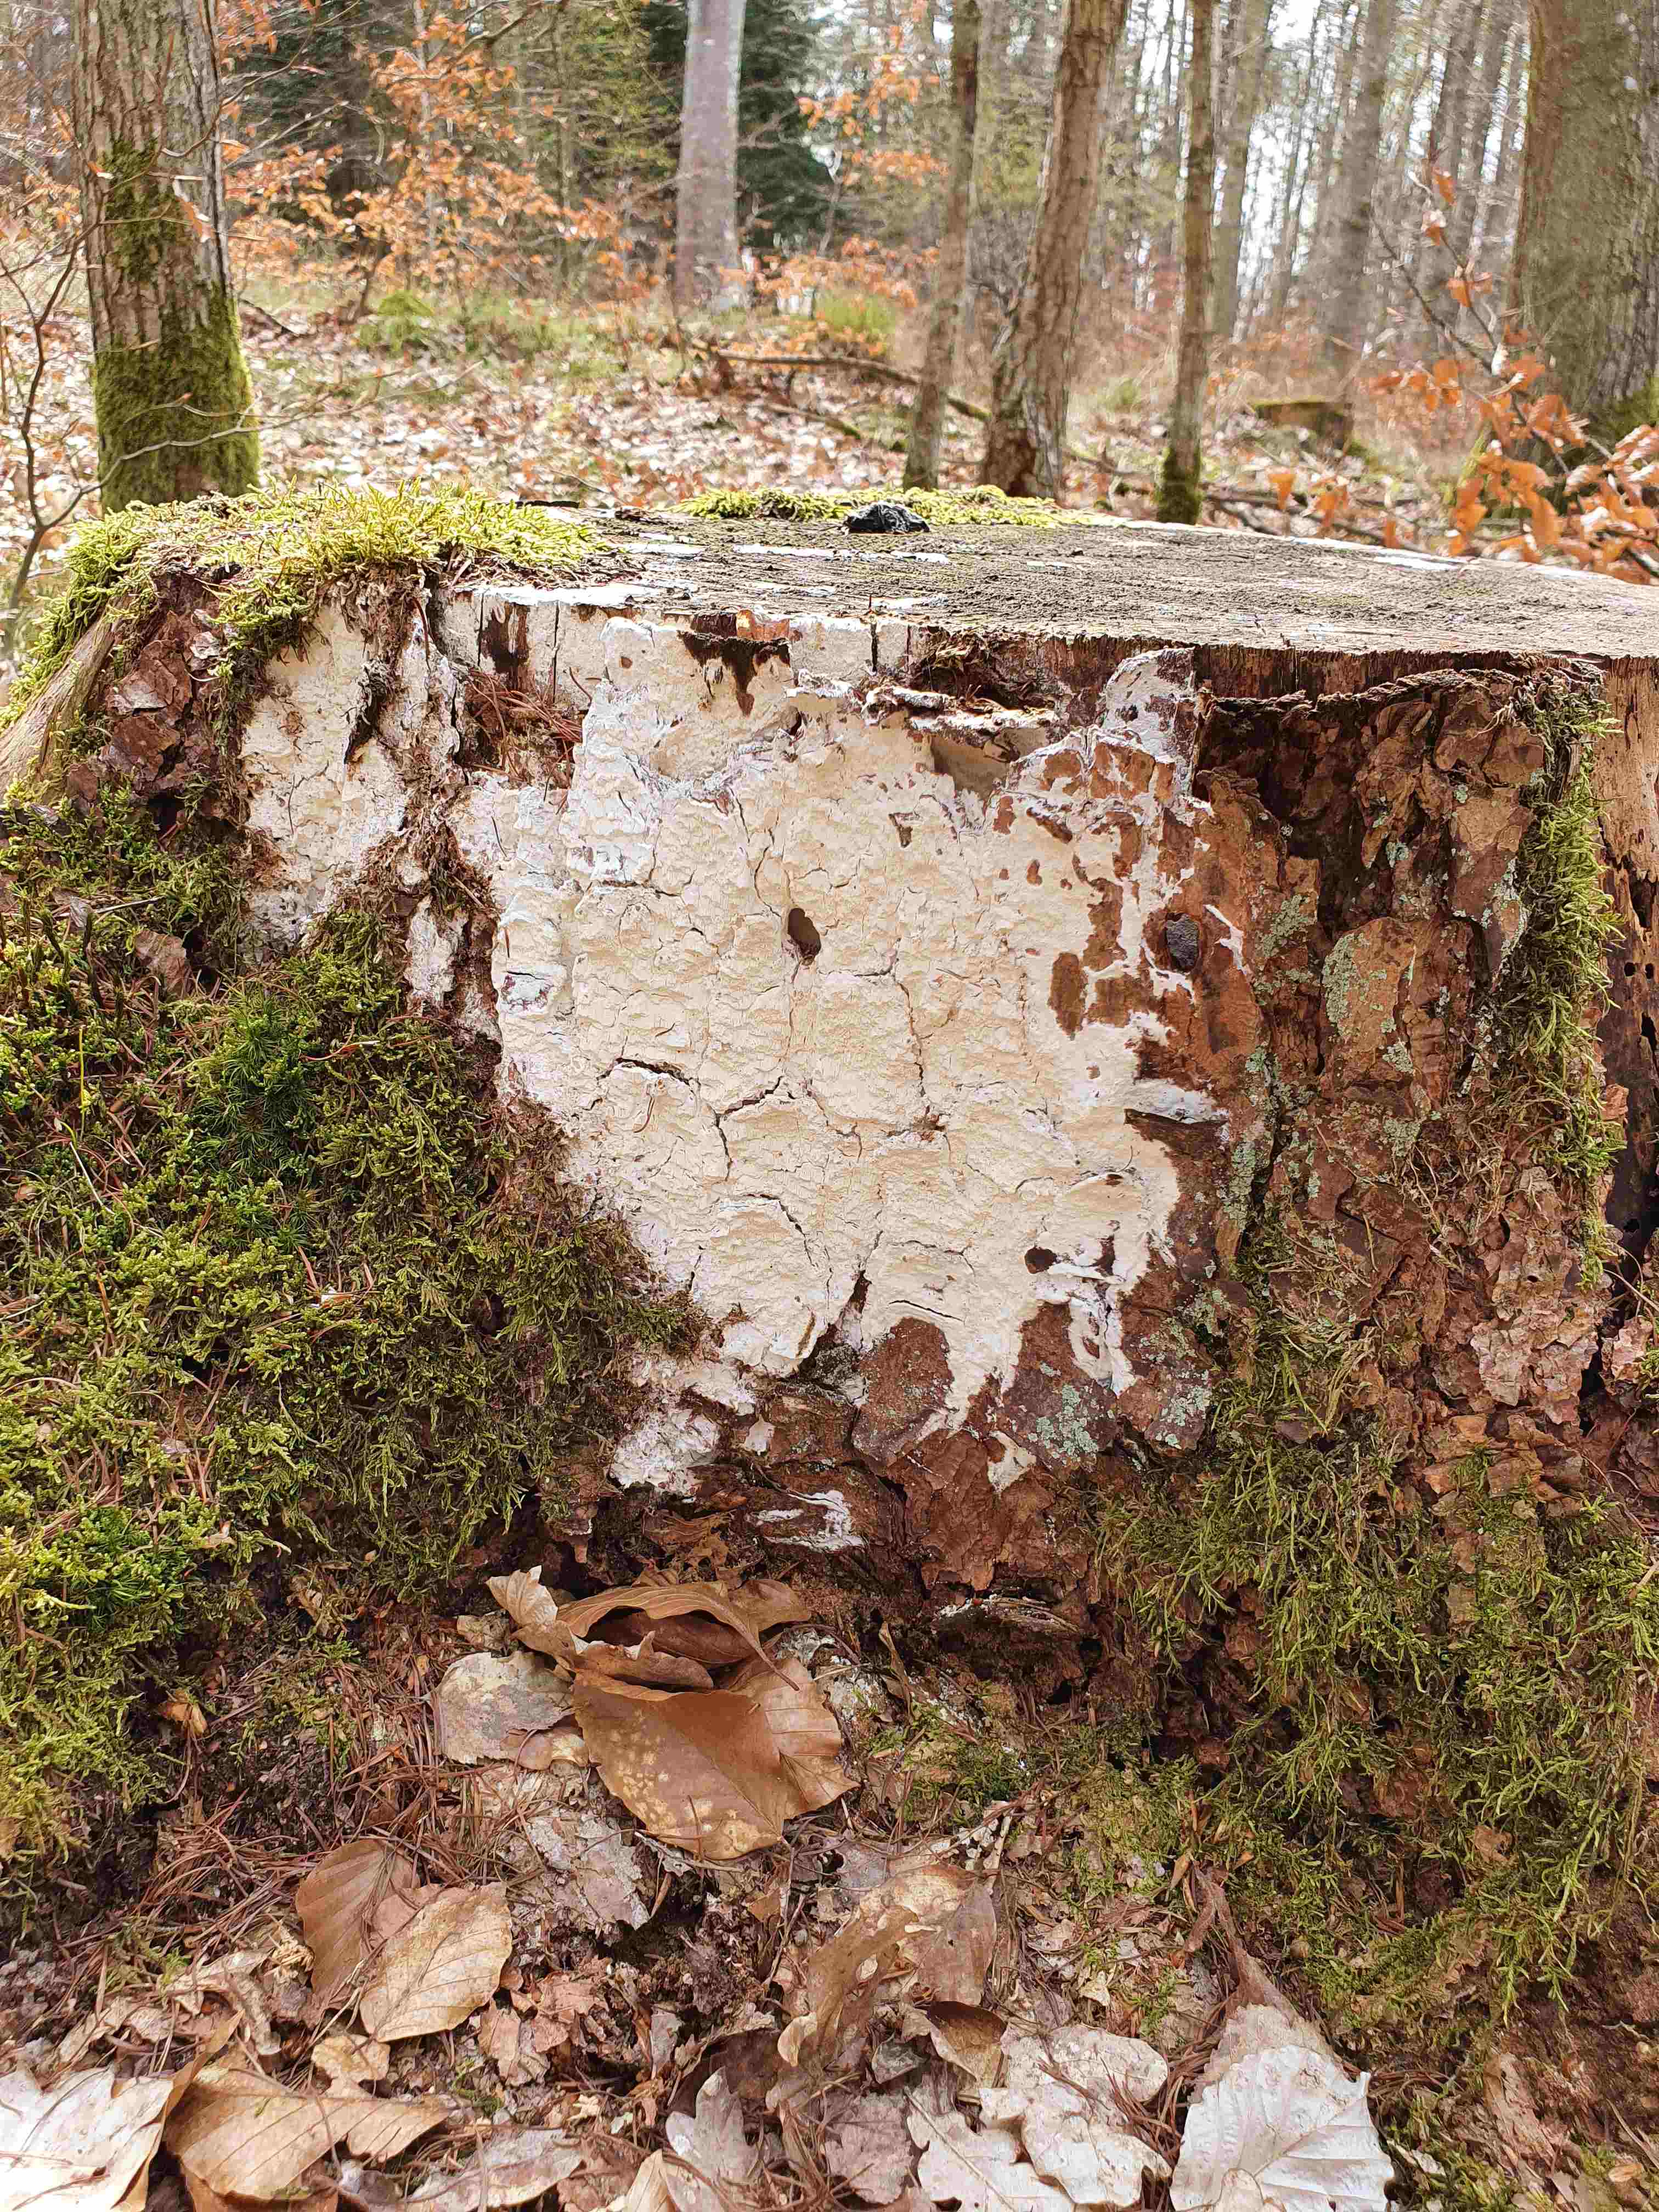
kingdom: Fungi
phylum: Basidiomycota
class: Agaricomycetes
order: Polyporales
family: Fomitopsidaceae
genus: Daedalea
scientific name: Daedalea xantha
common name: gul sejporesvamp
